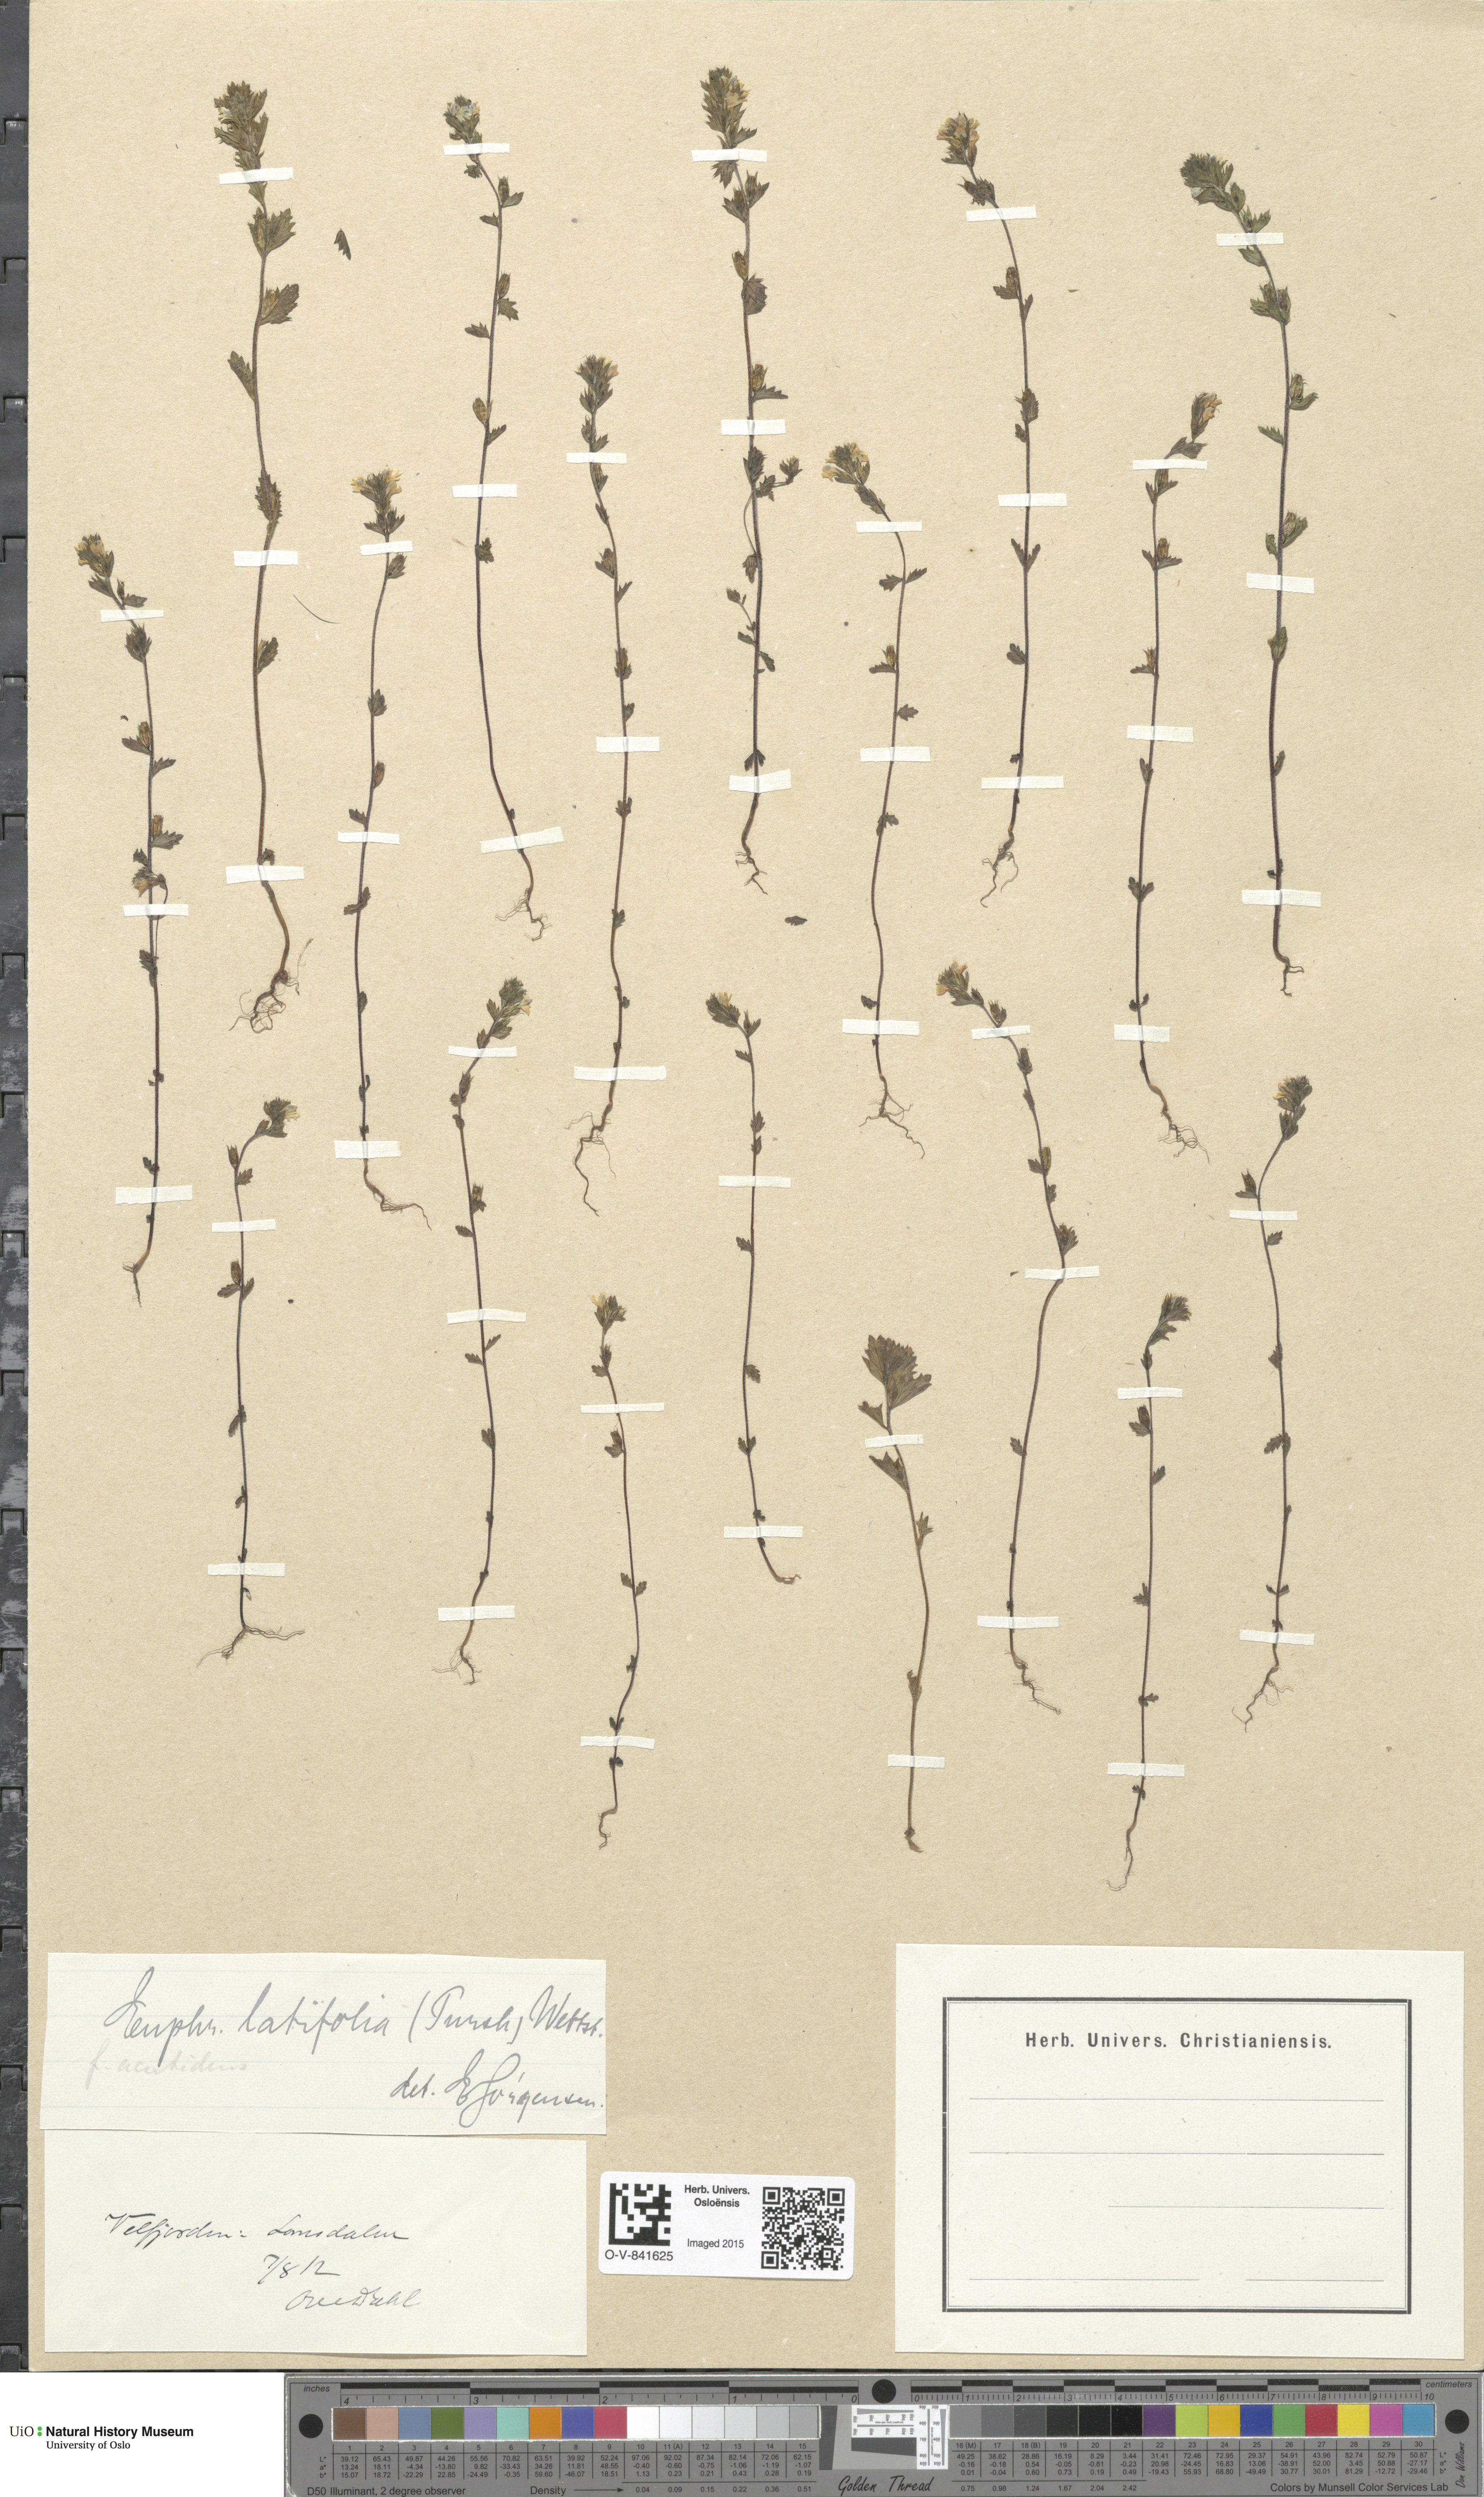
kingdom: Plantae
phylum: Tracheophyta
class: Magnoliopsida
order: Lamiales
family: Orobanchaceae
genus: Euphrasia
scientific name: Euphrasia wettsteinii
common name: Wettstein's eyebright
